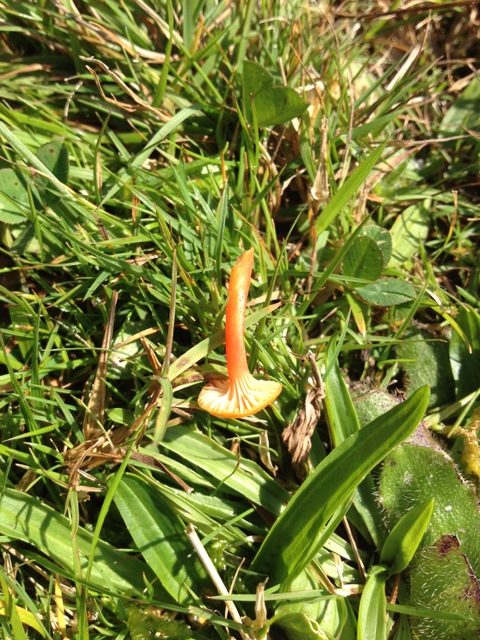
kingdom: Fungi
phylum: Basidiomycota
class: Agaricomycetes
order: Agaricales
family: Hygrophoraceae
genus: Hygrocybe
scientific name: Hygrocybe cantharellus
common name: kantarel-vokshat
